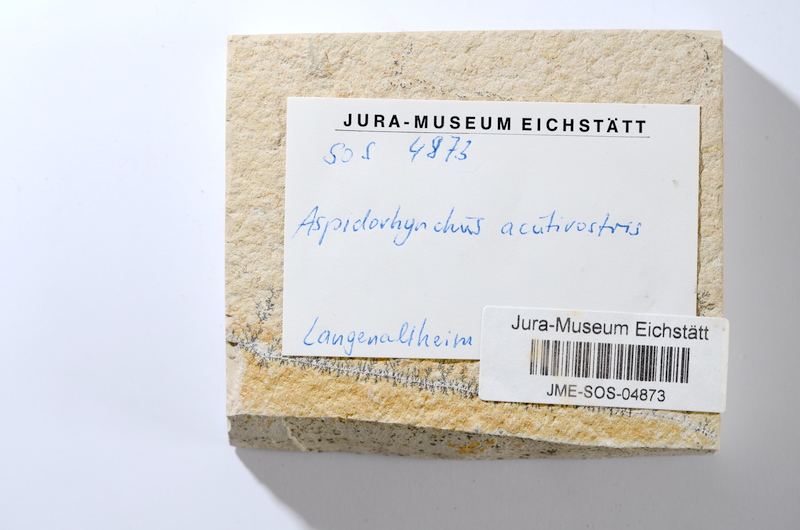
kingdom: Animalia
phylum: Chordata
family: Aspidorhynchidae
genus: Aspidorhynchus
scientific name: Aspidorhynchus acutirostris
